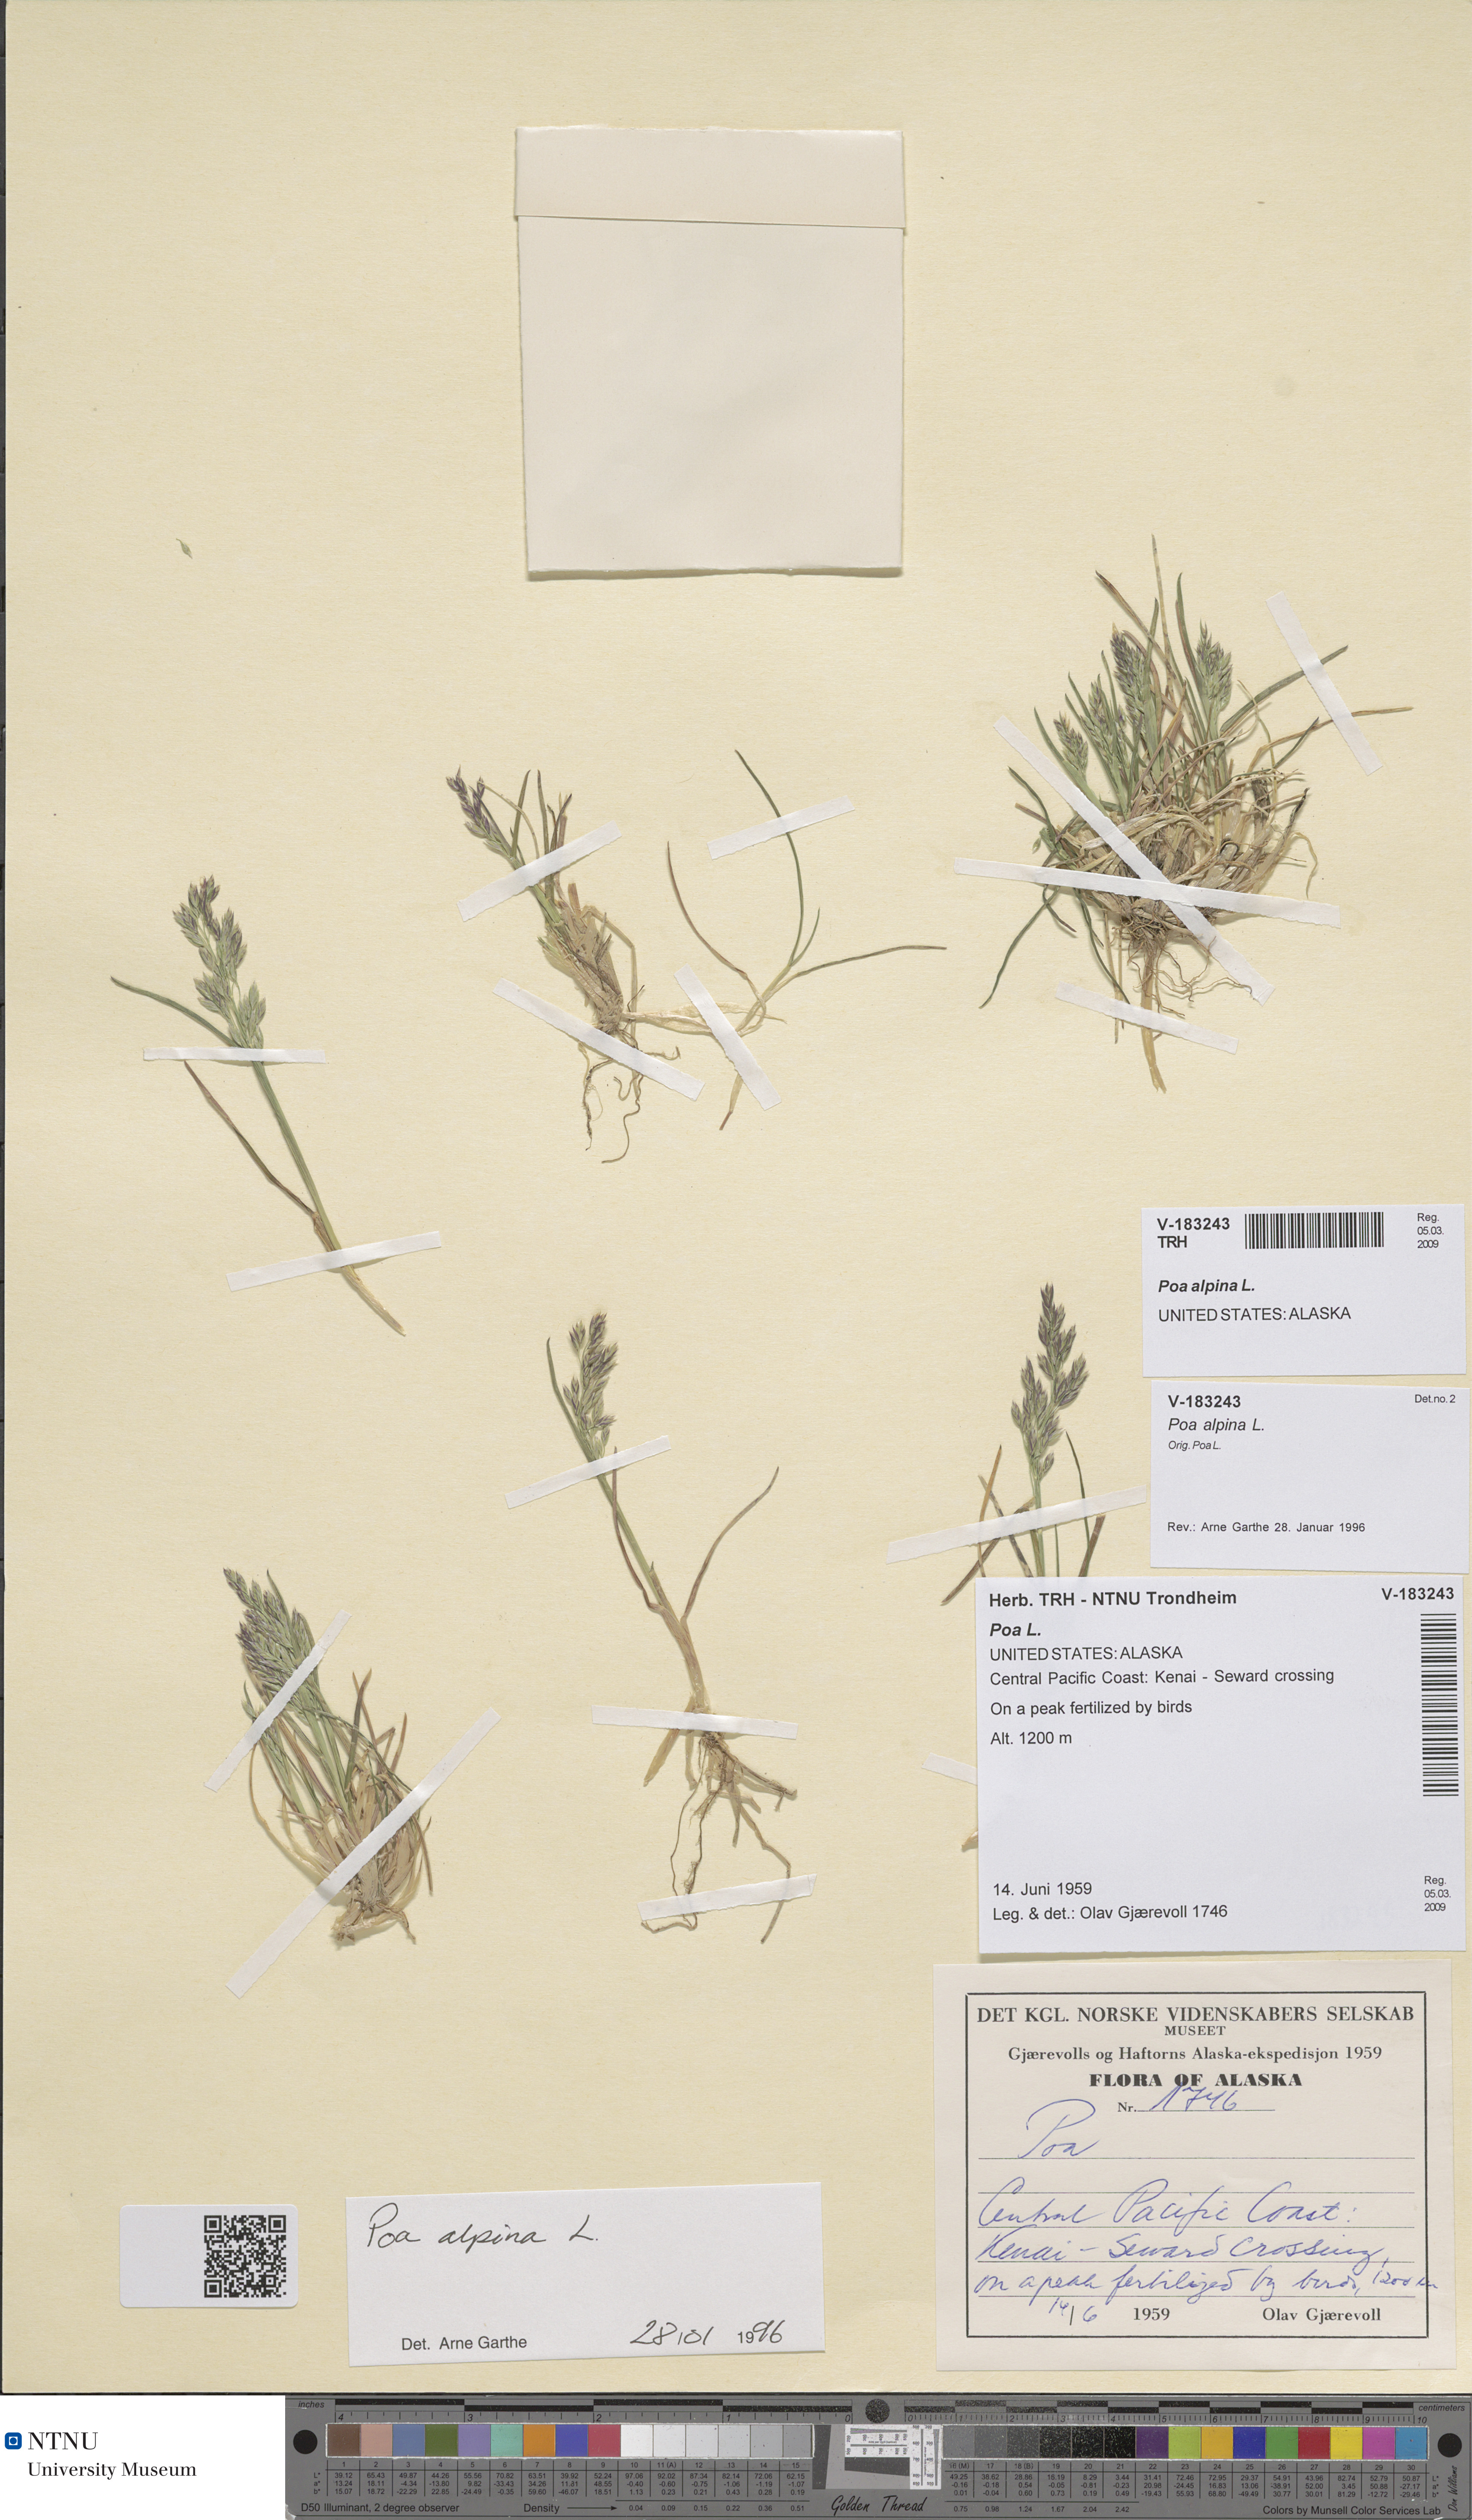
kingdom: Plantae
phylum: Tracheophyta
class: Liliopsida
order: Poales
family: Poaceae
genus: Poa
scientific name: Poa alpina
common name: Alpine bluegrass
